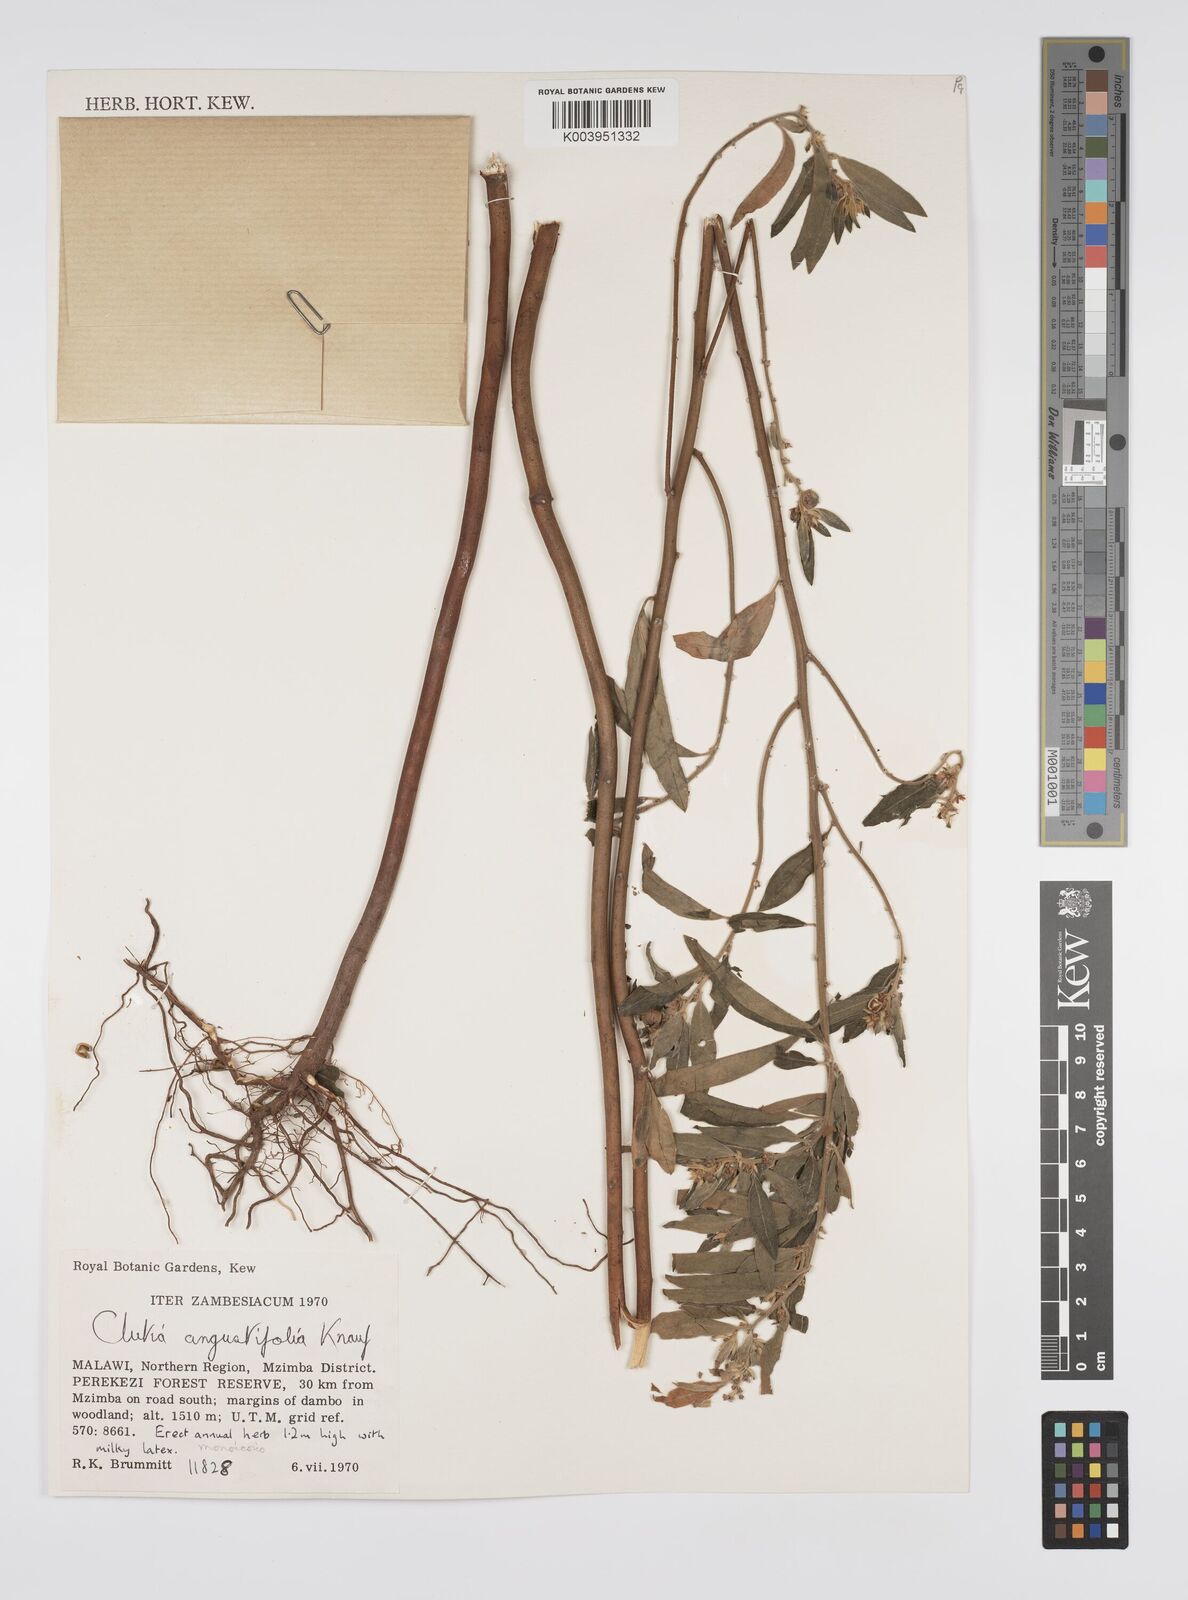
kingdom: Plantae
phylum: Tracheophyta
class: Magnoliopsida
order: Malpighiales
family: Peraceae
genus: Clutia
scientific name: Clutia angustifolia
